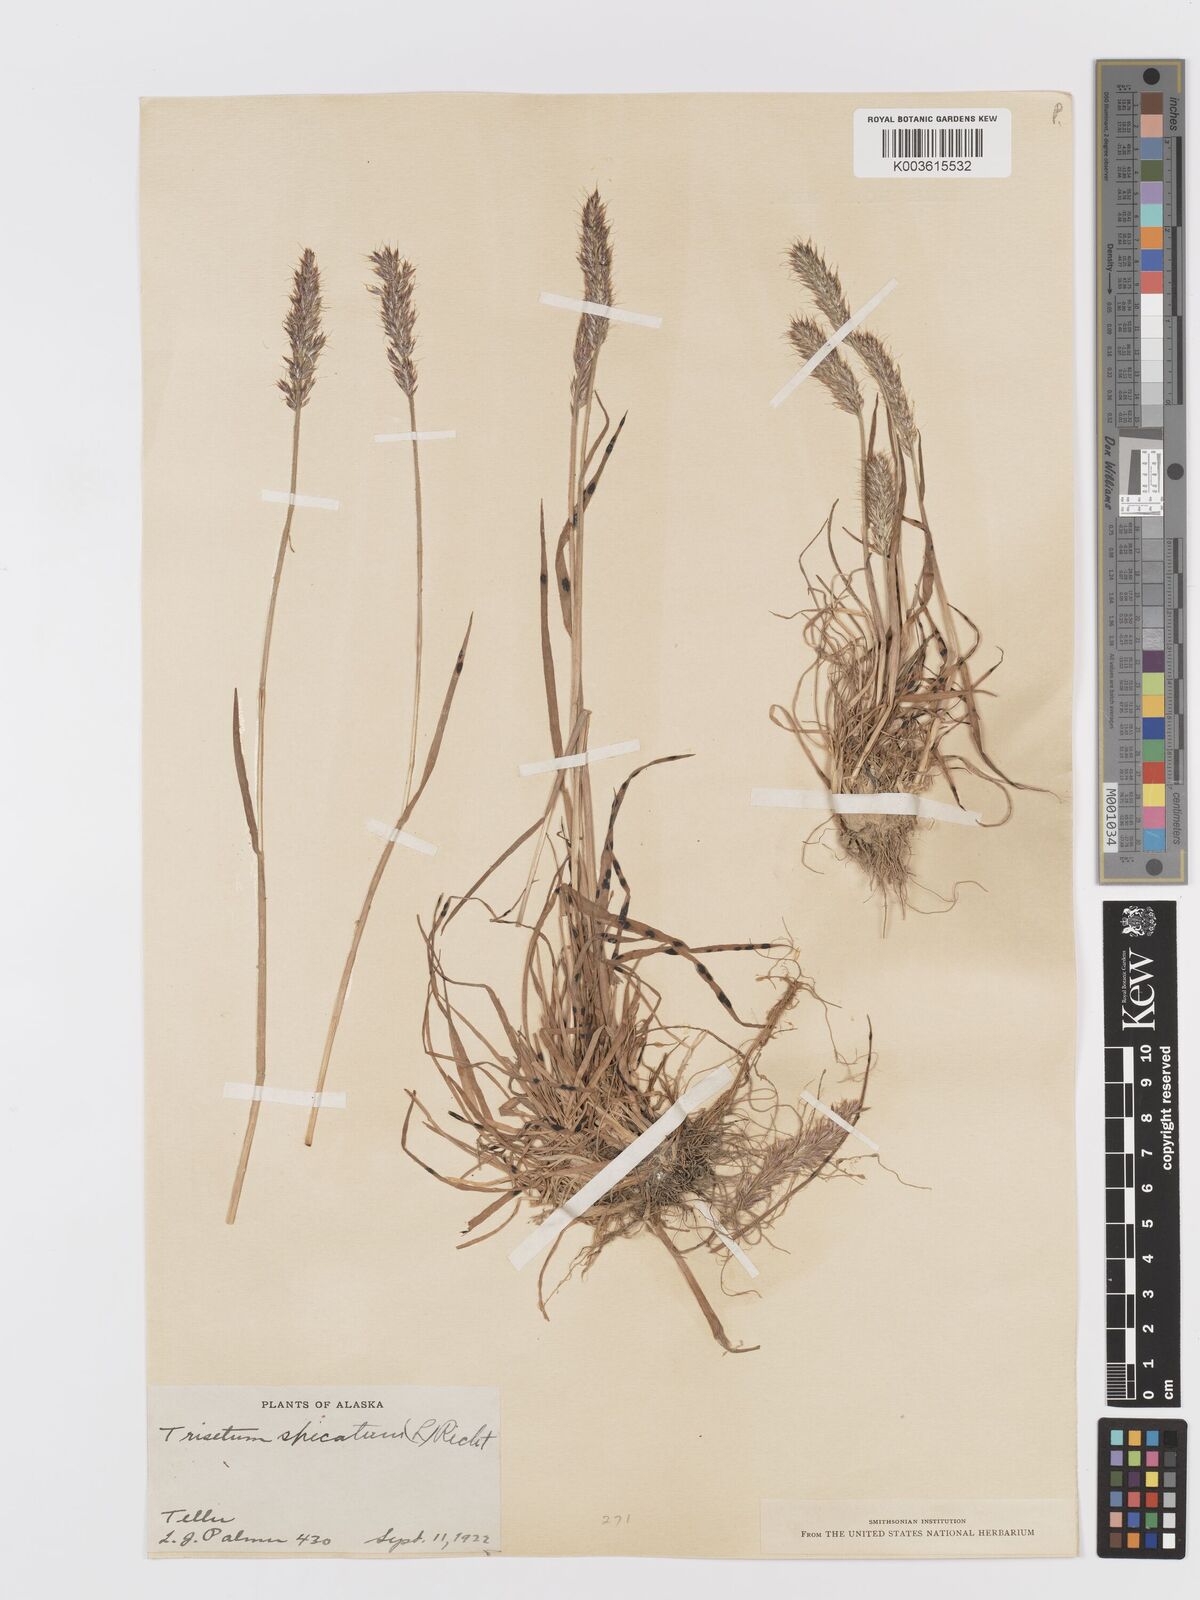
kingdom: Plantae
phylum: Tracheophyta
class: Liliopsida
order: Poales
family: Poaceae
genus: Koeleria
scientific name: Koeleria spicata
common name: Mountain trisetum
